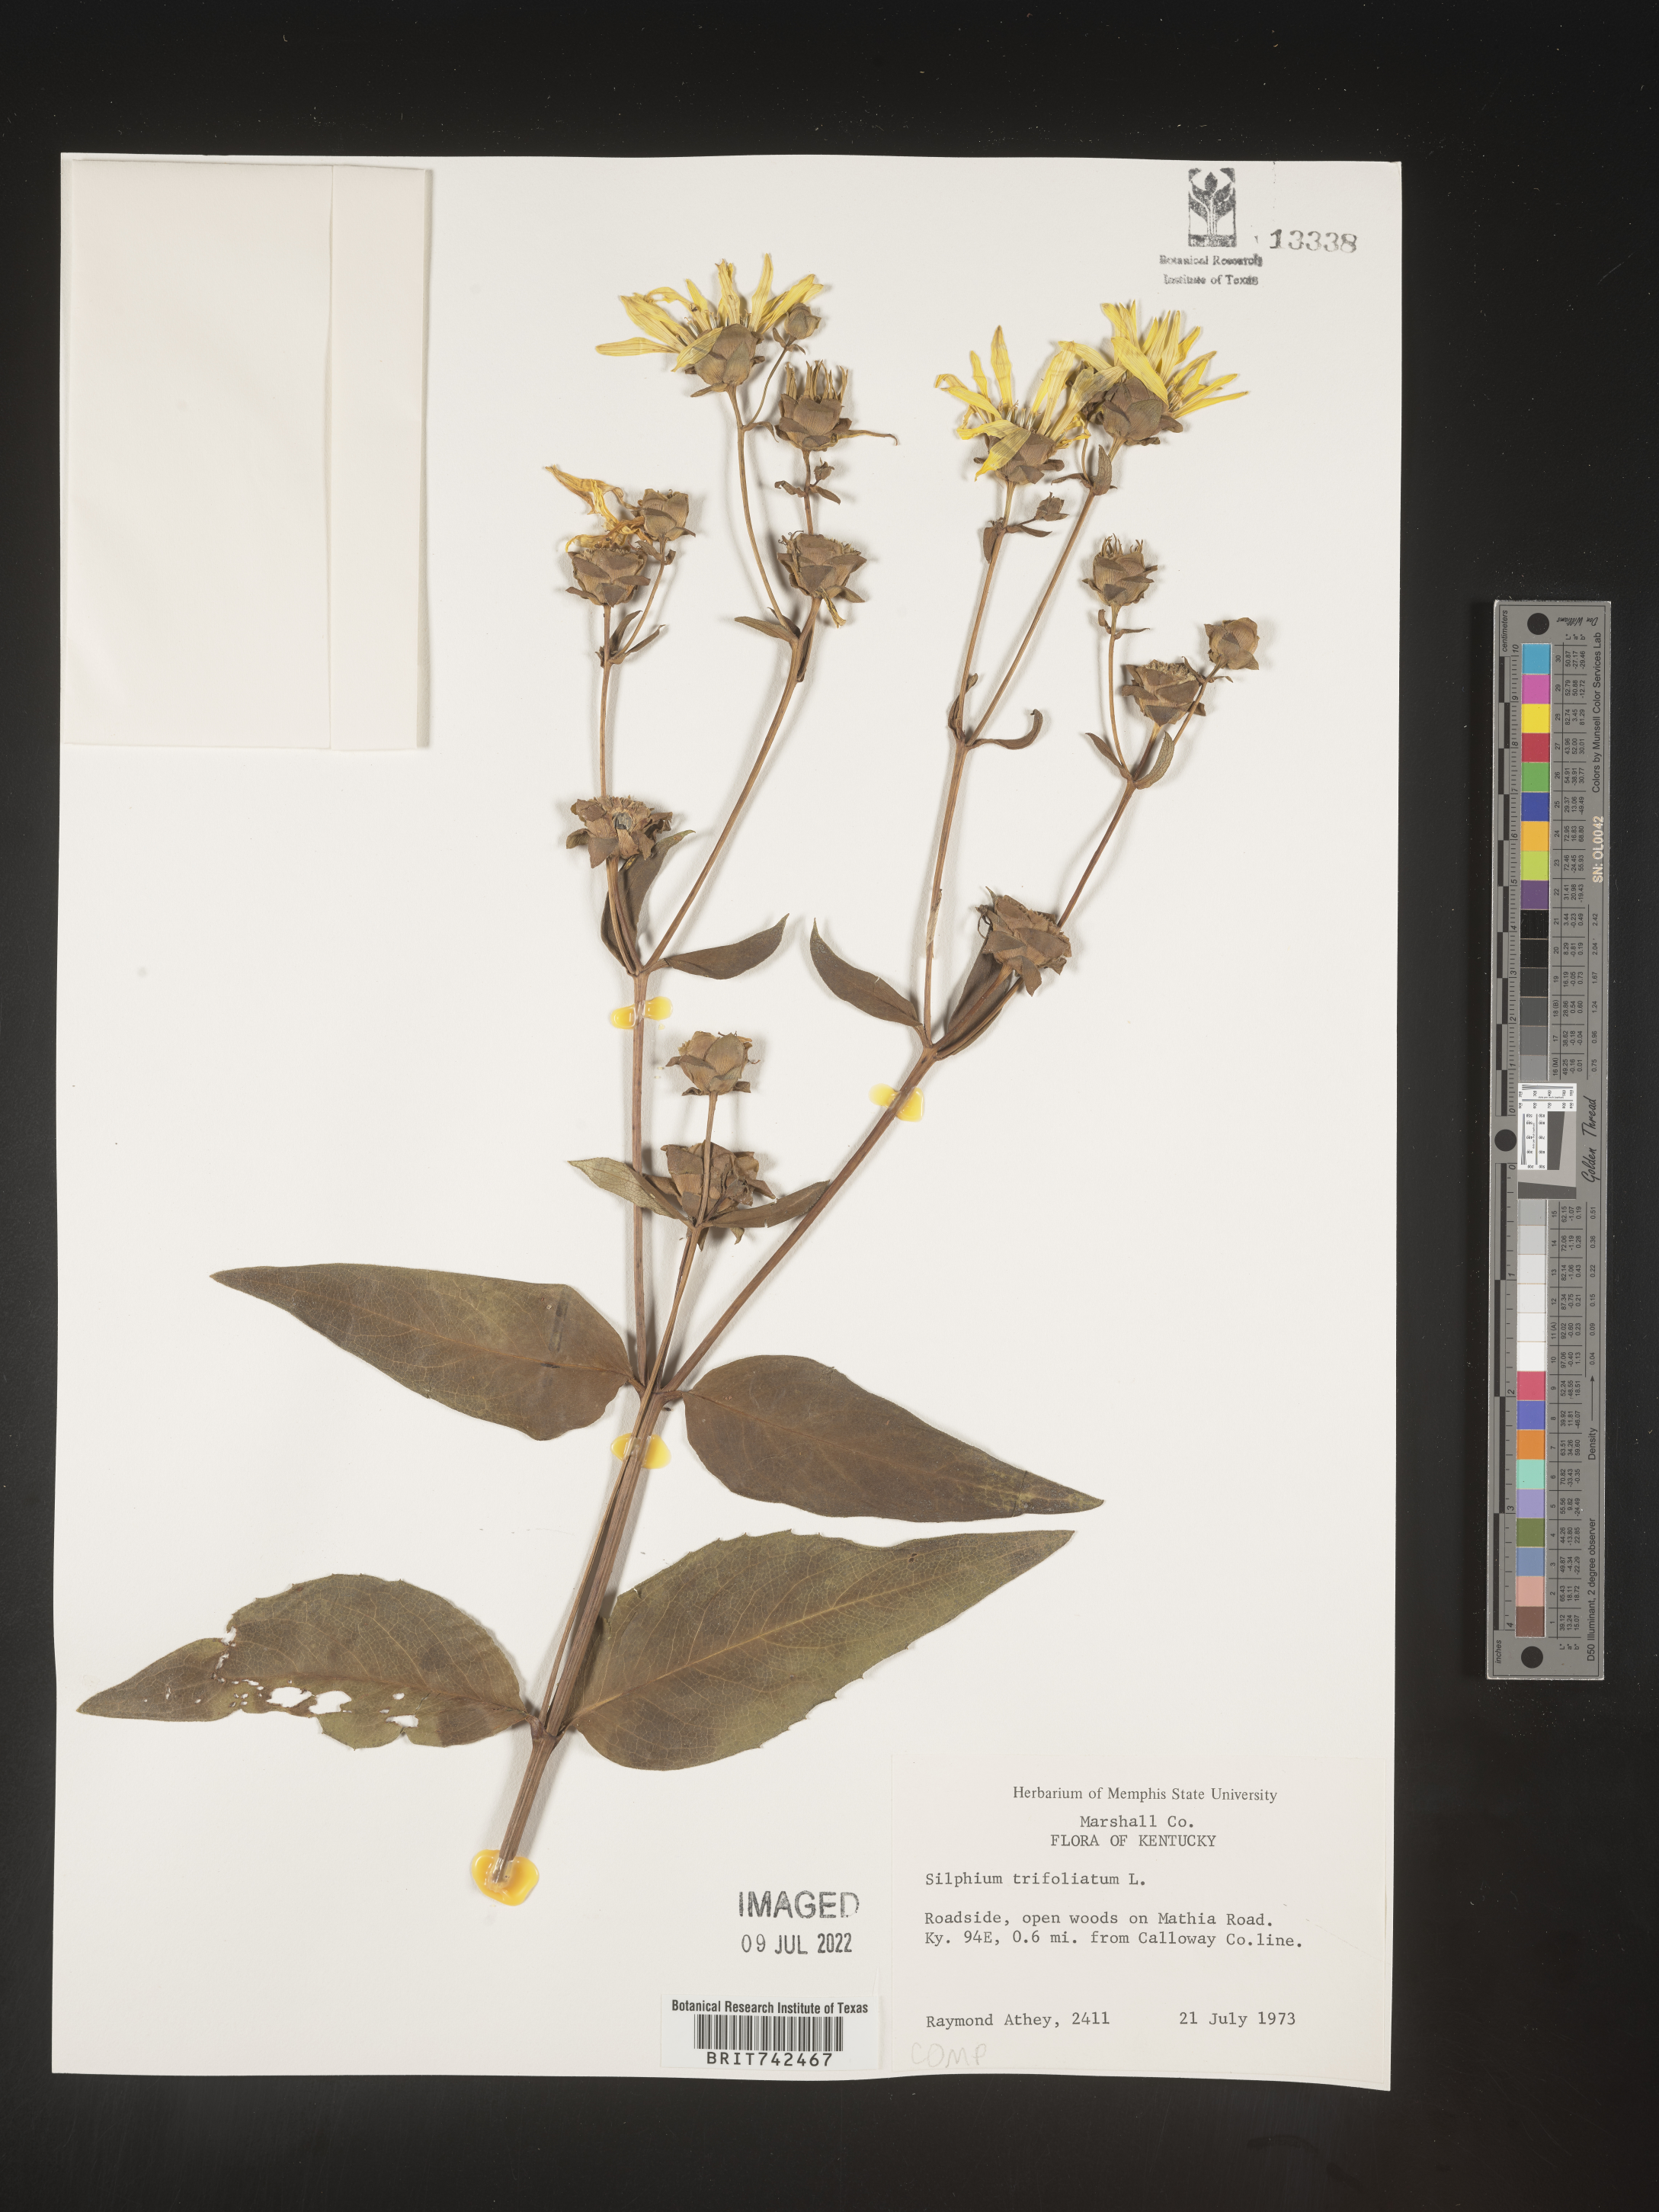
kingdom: Plantae
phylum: Tracheophyta
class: Magnoliopsida
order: Asterales
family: Asteraceae
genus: Silphium
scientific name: Silphium asteriscus
